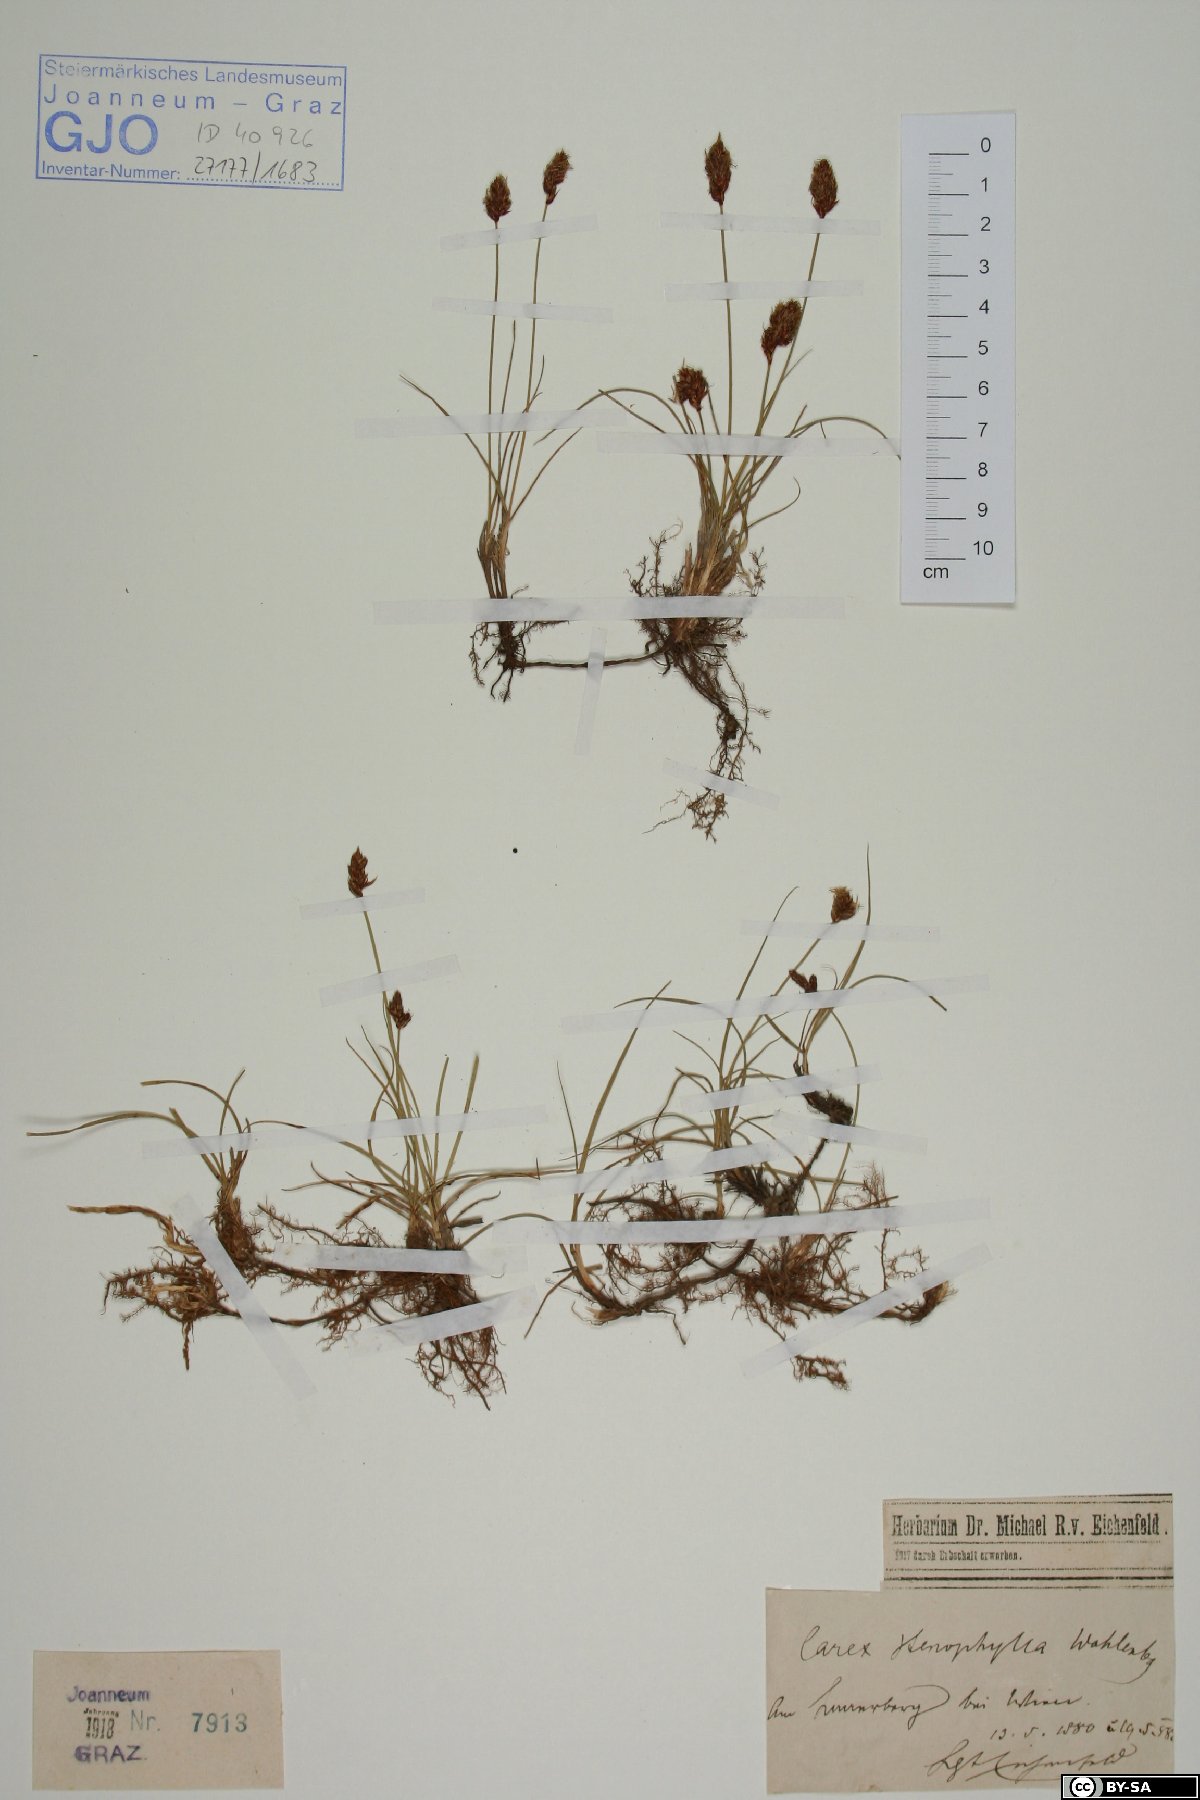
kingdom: Plantae
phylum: Tracheophyta
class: Liliopsida
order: Poales
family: Cyperaceae
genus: Carex
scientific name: Carex stenophylla
